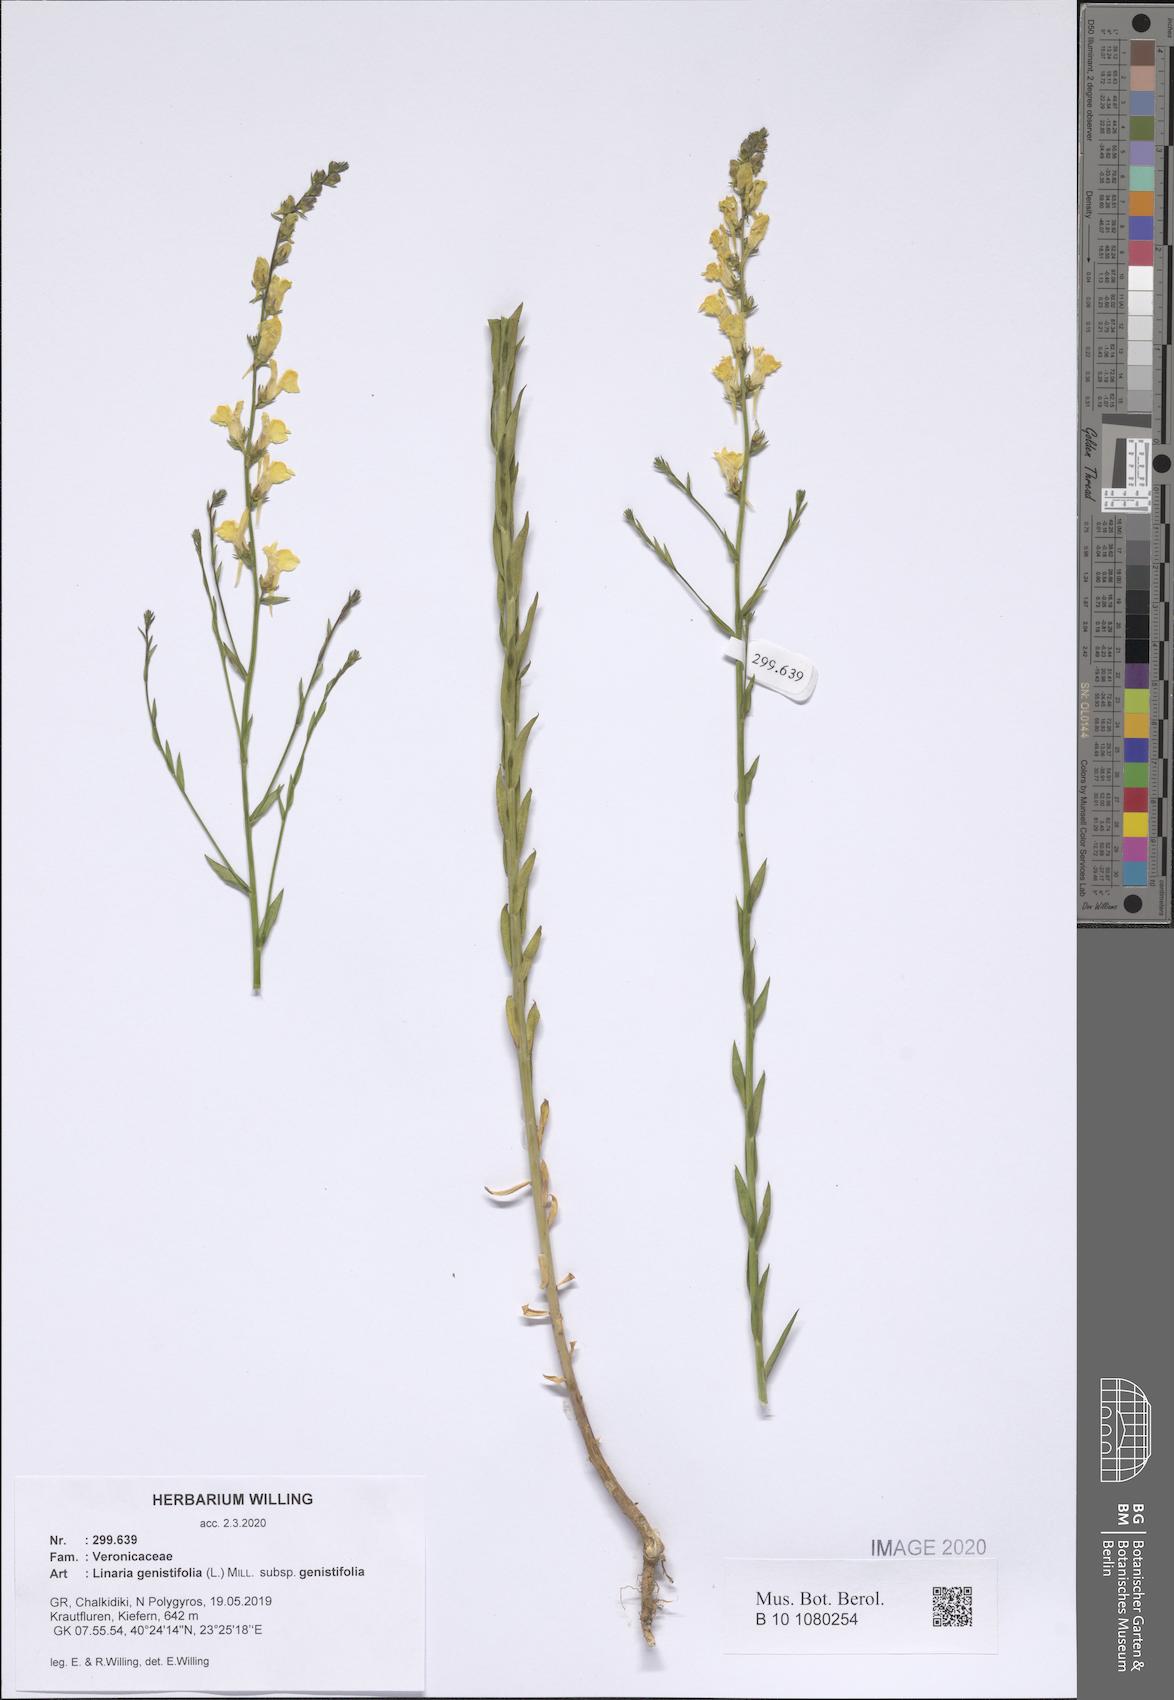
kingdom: Plantae
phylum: Tracheophyta
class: Magnoliopsida
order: Lamiales
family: Plantaginaceae
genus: Linaria
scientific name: Linaria genistifolia
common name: Broomleaf toadflax
